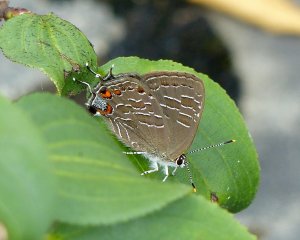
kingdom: Animalia
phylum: Arthropoda
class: Insecta
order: Lepidoptera
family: Lycaenidae
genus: Satyrium
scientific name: Satyrium liparops
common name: Striped Hairstreak
